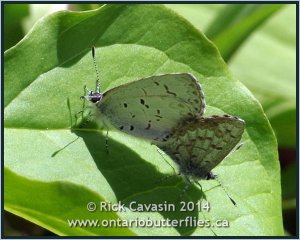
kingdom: Animalia
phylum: Arthropoda
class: Insecta
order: Lepidoptera
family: Lycaenidae
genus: Celastrina
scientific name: Celastrina lucia
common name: Northern Spring Azure
